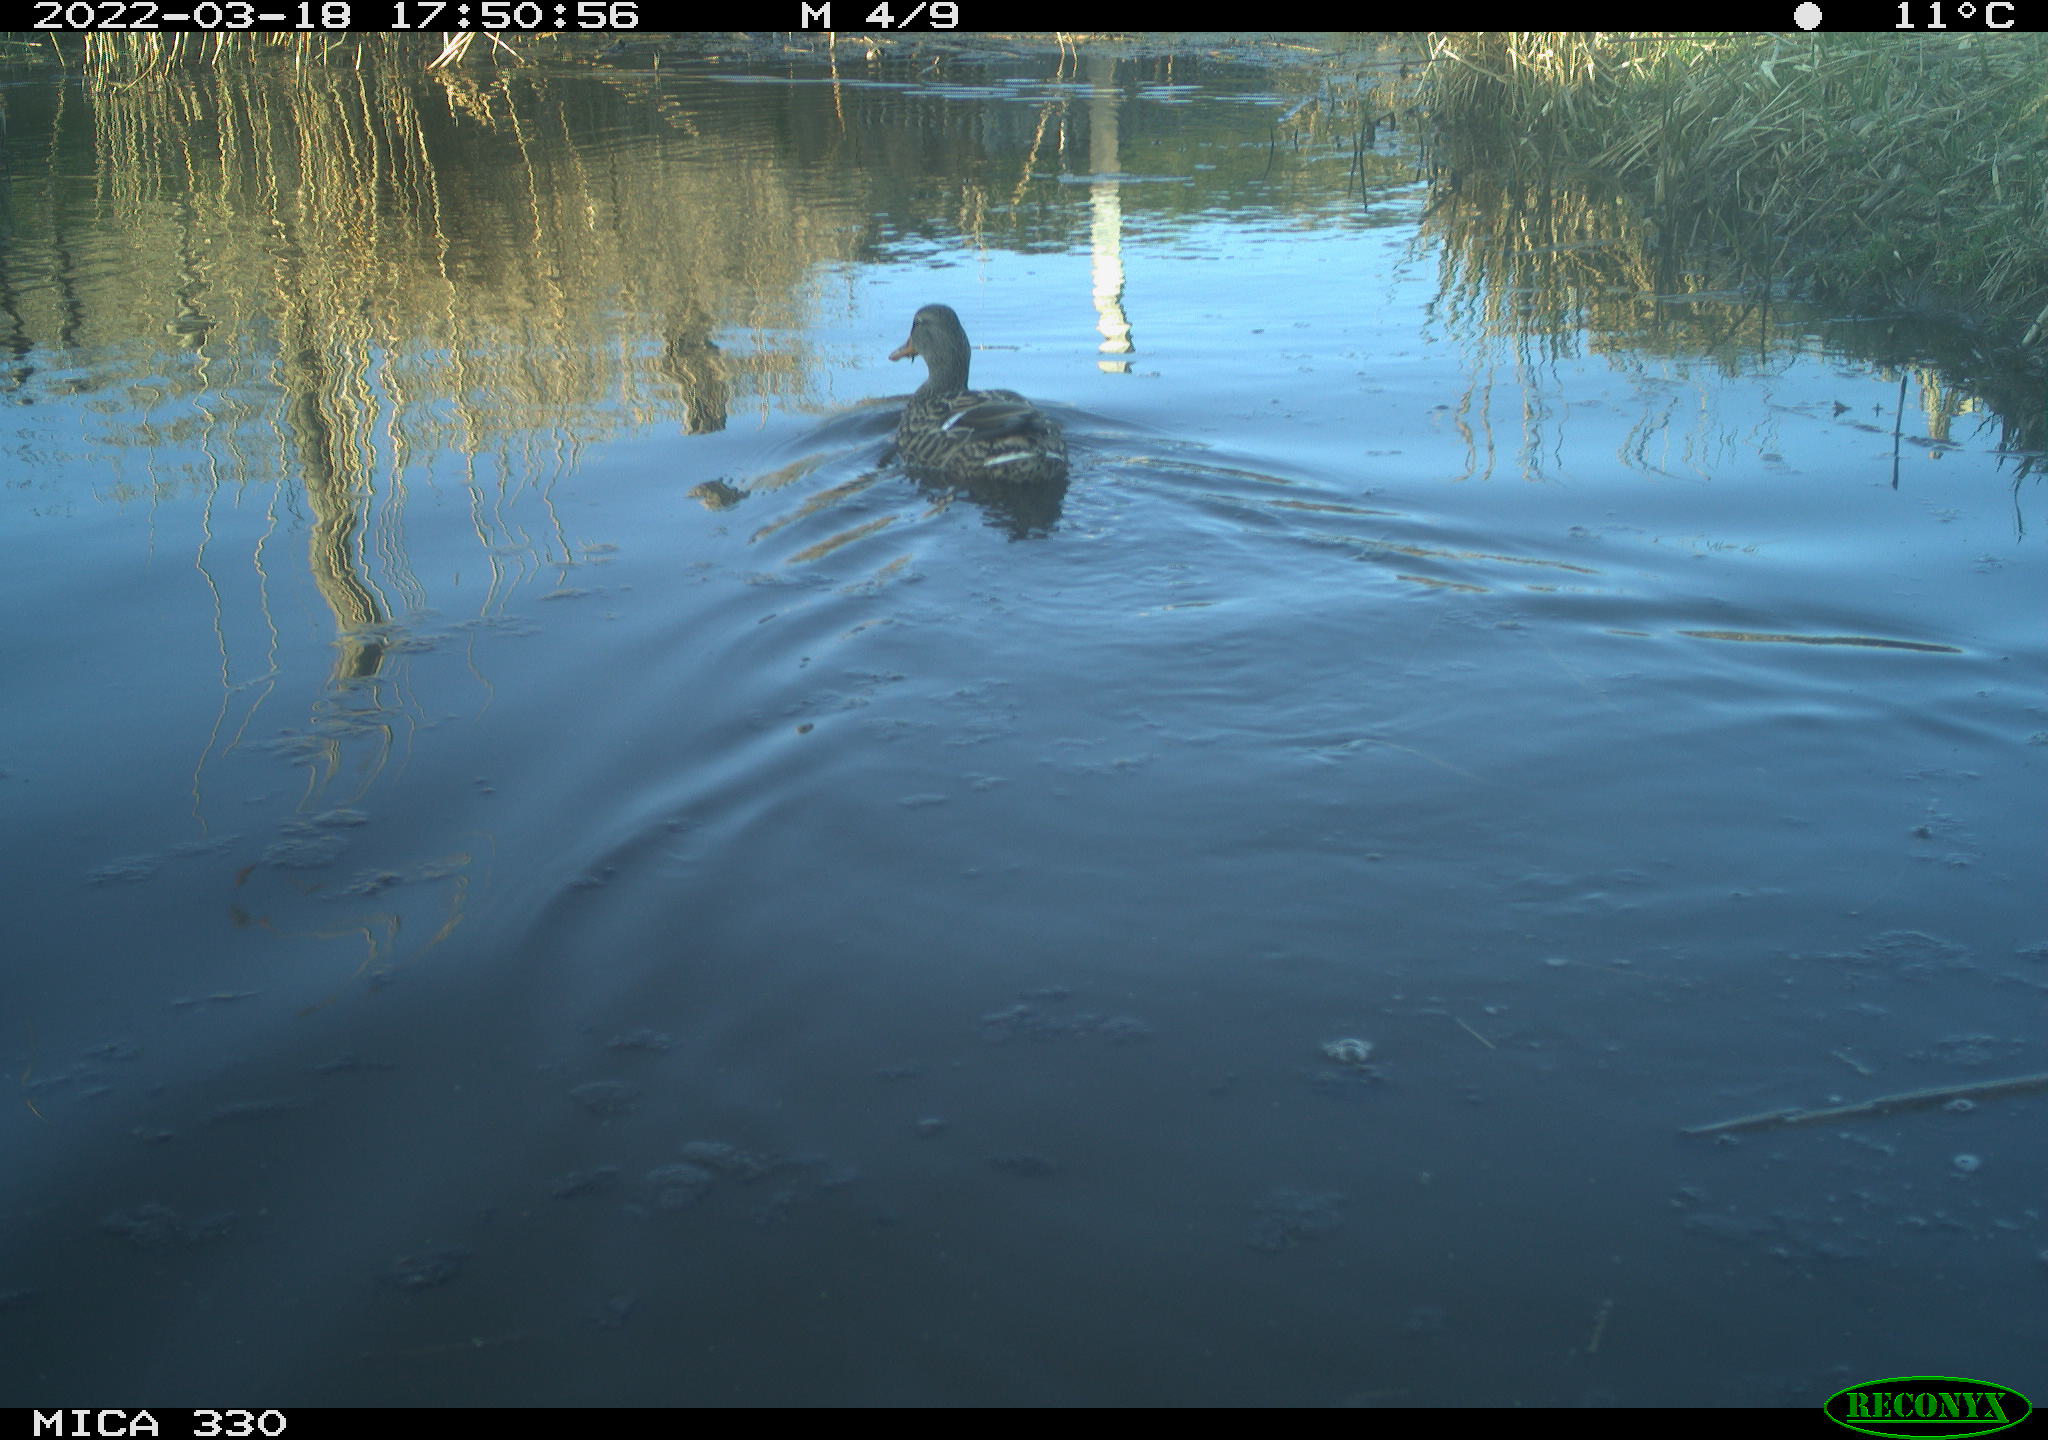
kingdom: Animalia
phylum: Chordata
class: Aves
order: Anseriformes
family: Anatidae
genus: Anas
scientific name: Anas platyrhynchos
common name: Mallard
